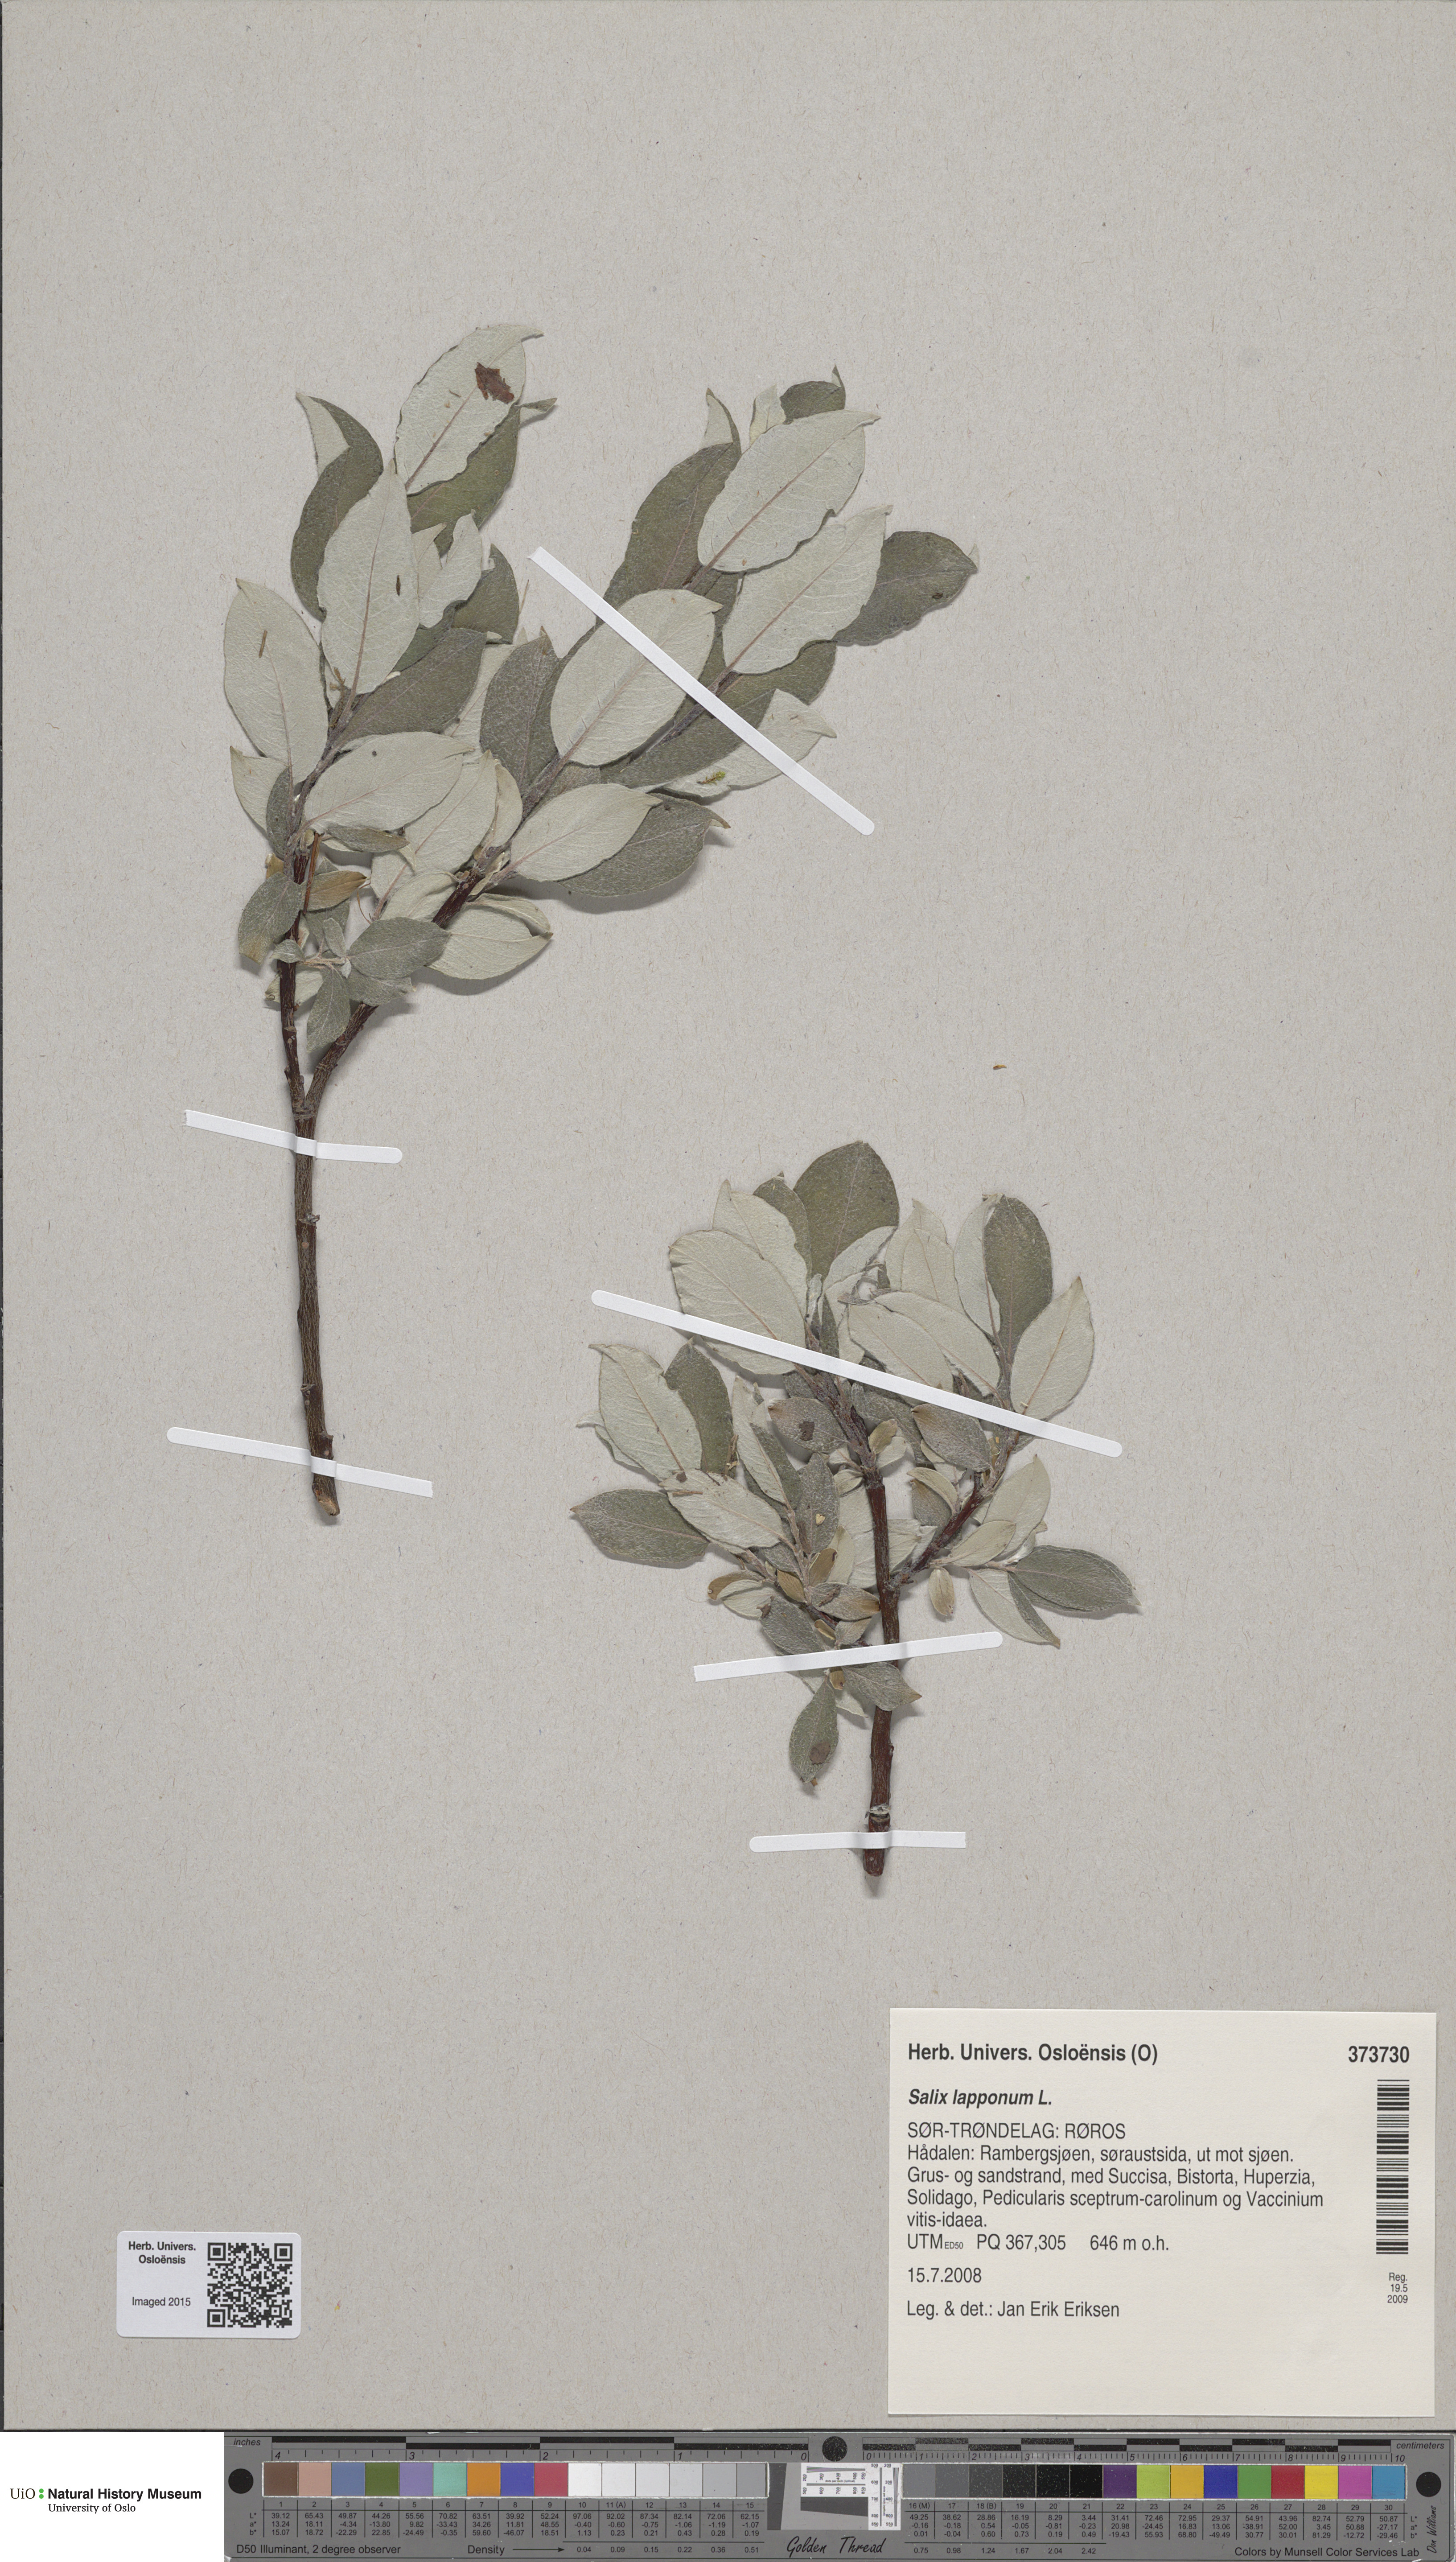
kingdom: Plantae
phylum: Tracheophyta
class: Magnoliopsida
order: Malpighiales
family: Salicaceae
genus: Salix
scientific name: Salix lapponum
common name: Downy willow
